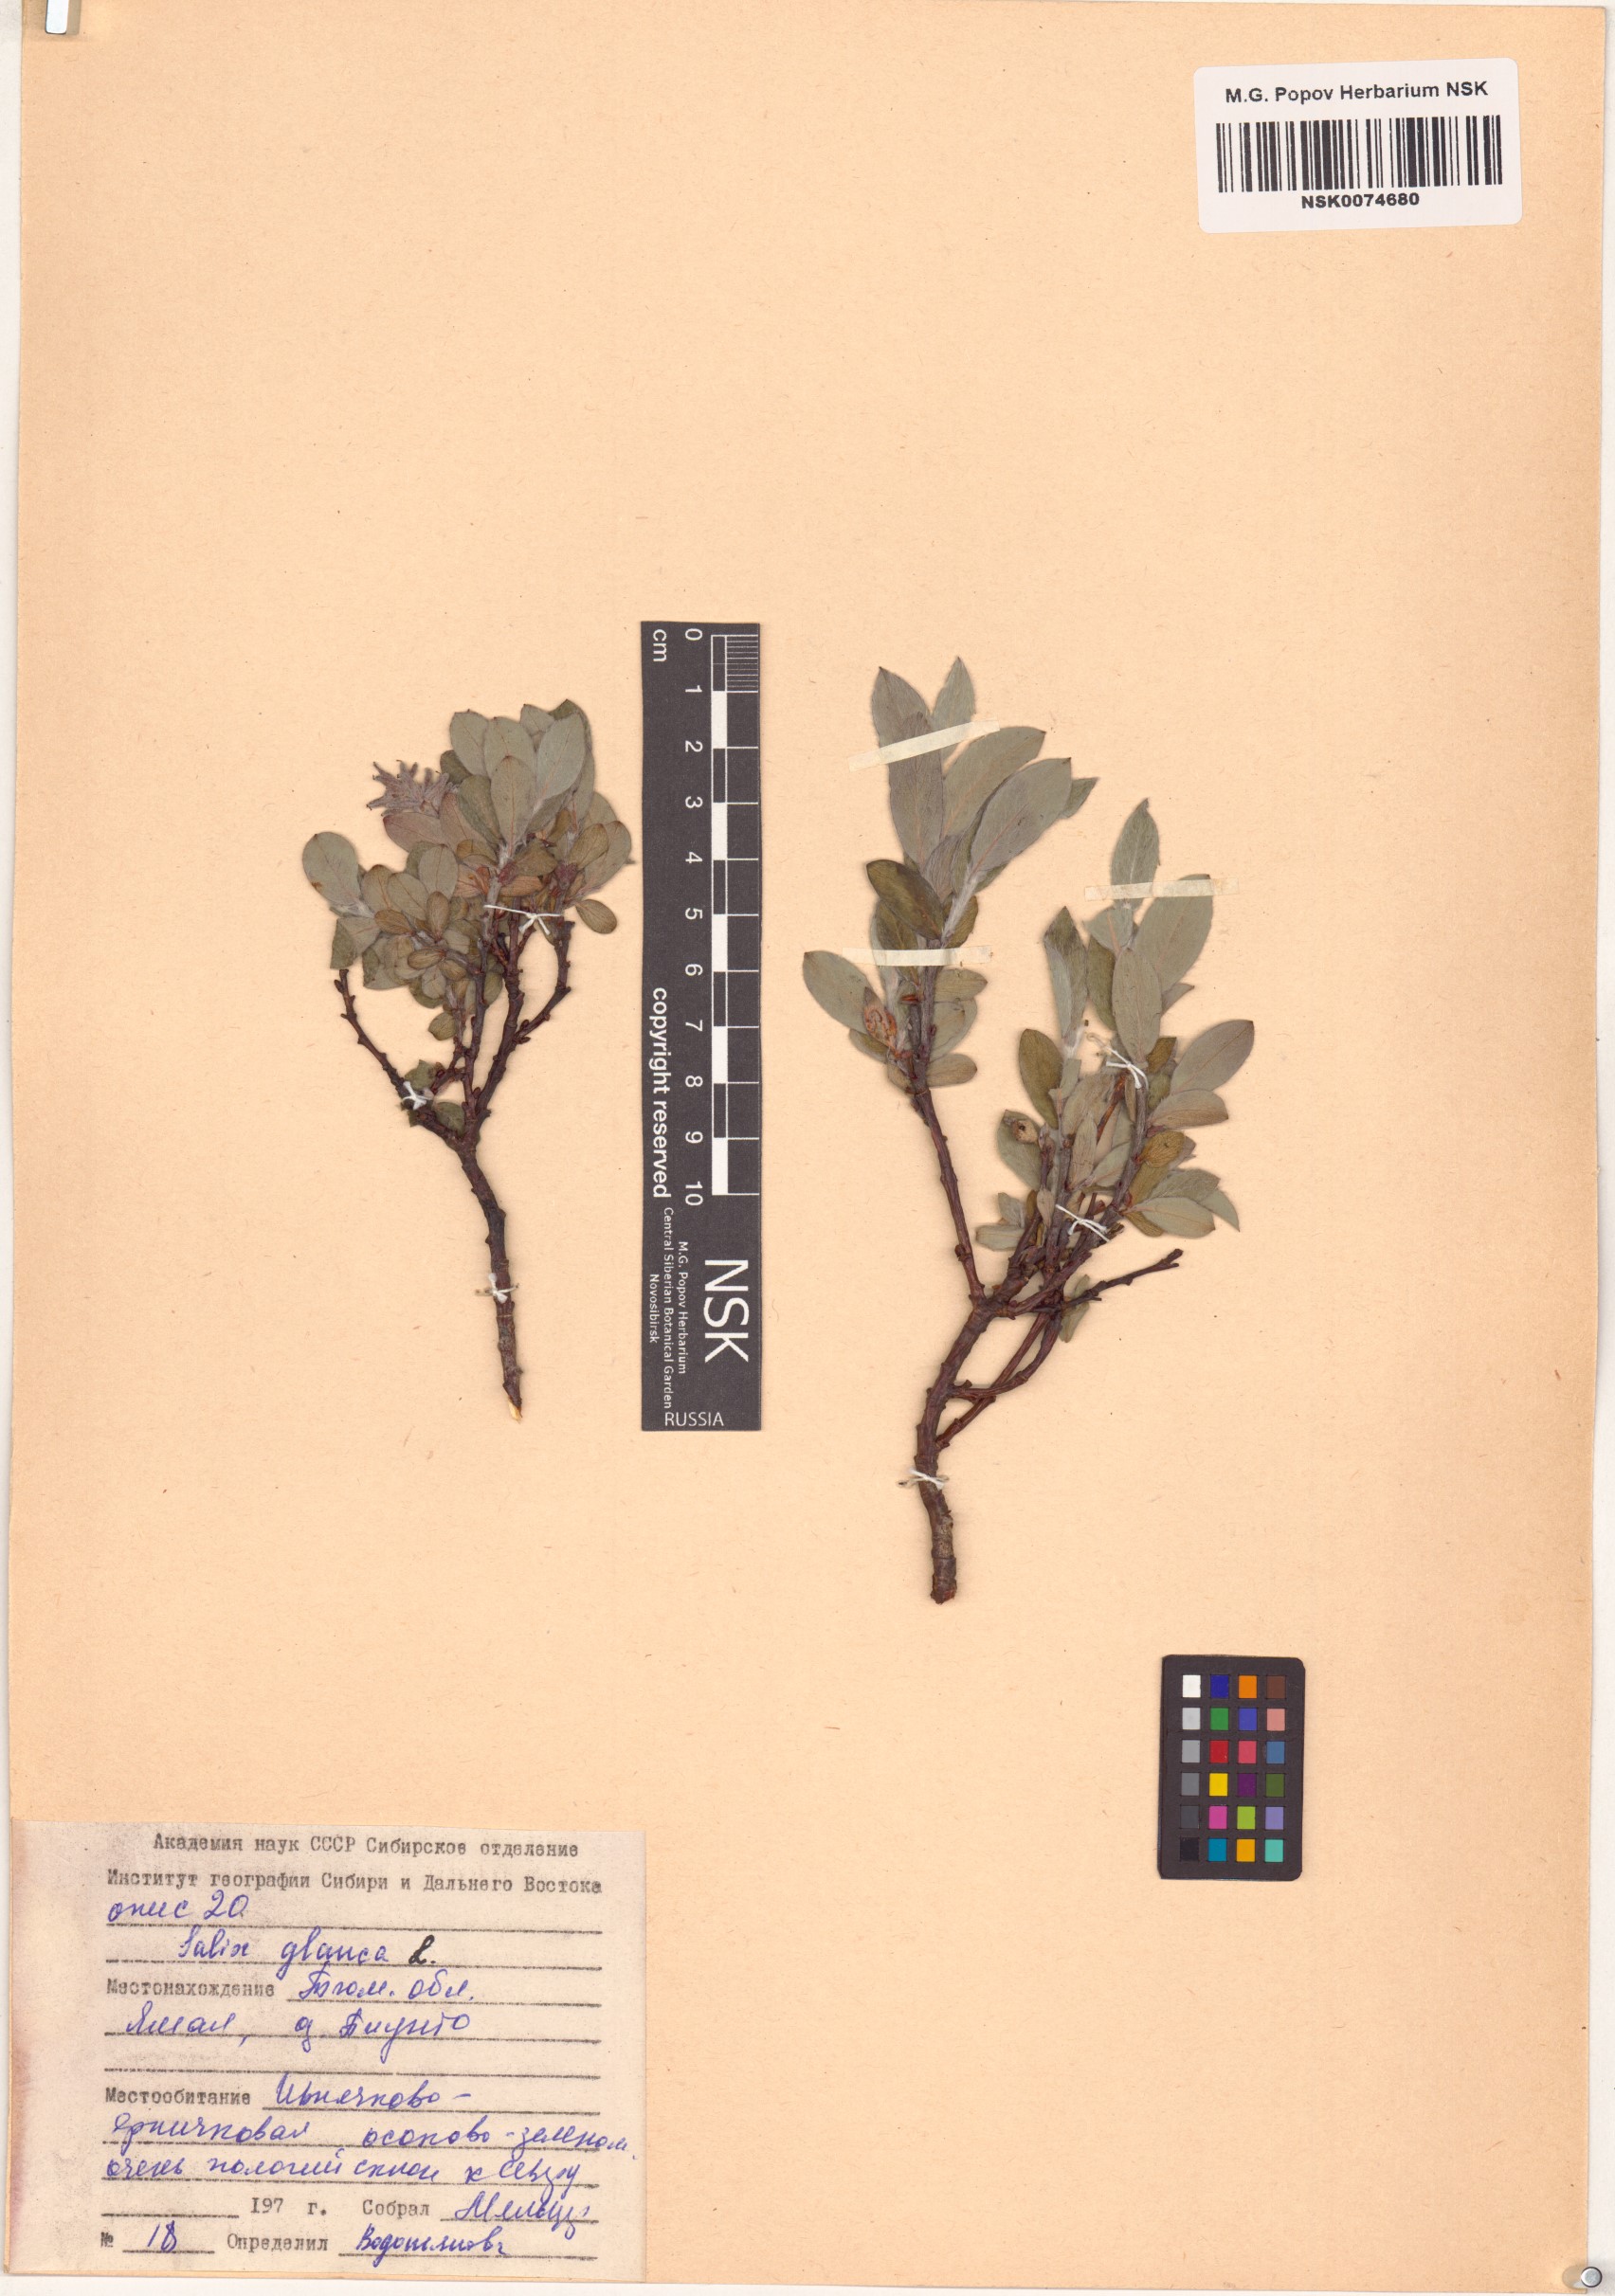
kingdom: Plantae
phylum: Tracheophyta
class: Magnoliopsida
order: Malpighiales
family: Salicaceae
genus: Salix
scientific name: Salix glauca
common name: Glaucous willow
